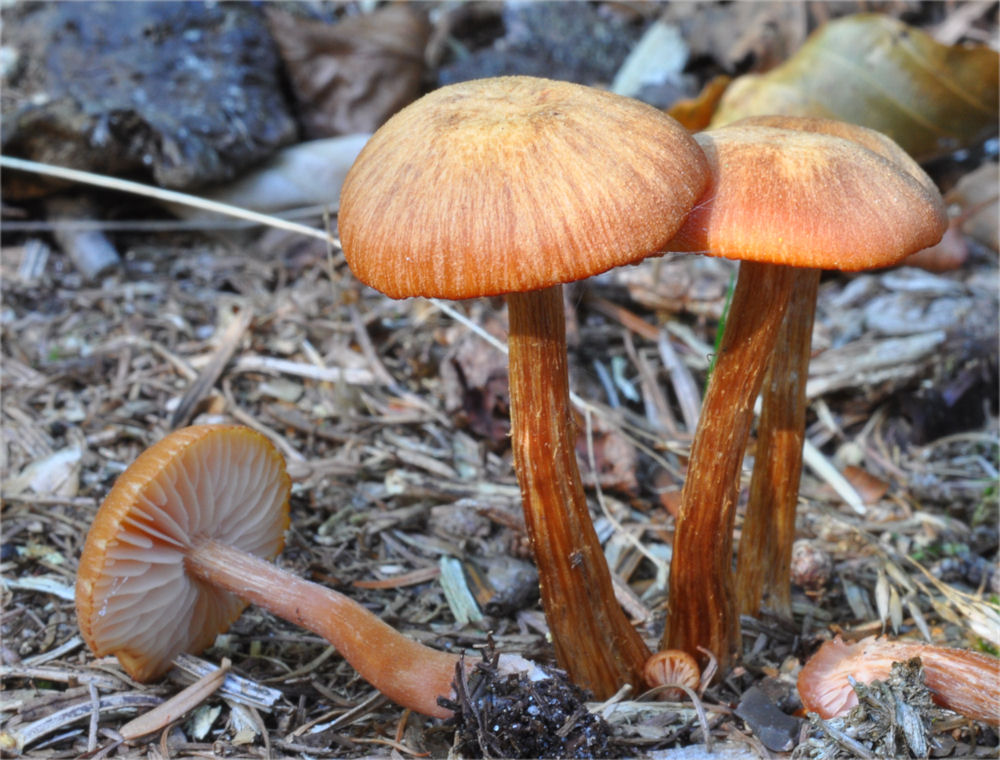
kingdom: Fungi
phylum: Basidiomycota
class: Agaricomycetes
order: Agaricales
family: Hydnangiaceae
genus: Laccaria
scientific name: Laccaria proxima
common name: stor ametysthat
